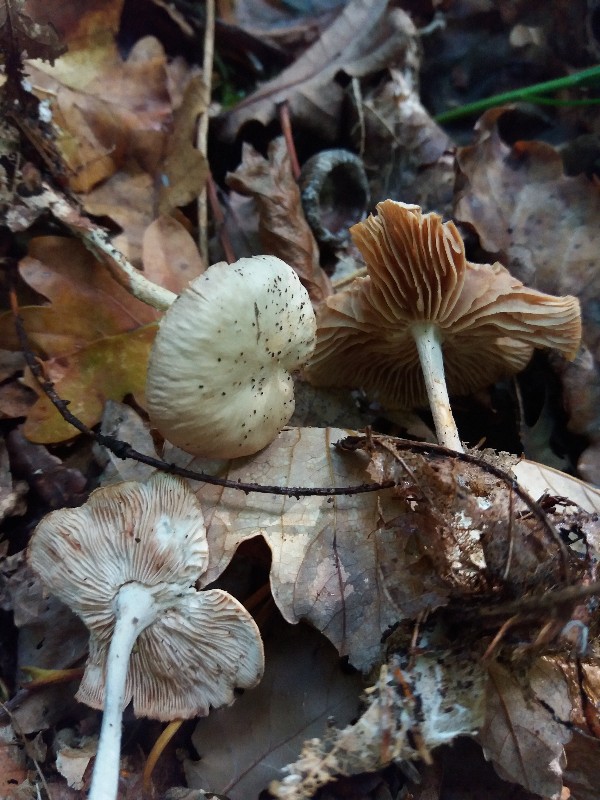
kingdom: Fungi
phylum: Basidiomycota
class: Agaricomycetes
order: Agaricales
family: Omphalotaceae
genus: Collybiopsis
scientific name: Collybiopsis peronata
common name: bestøvlet fladhat
